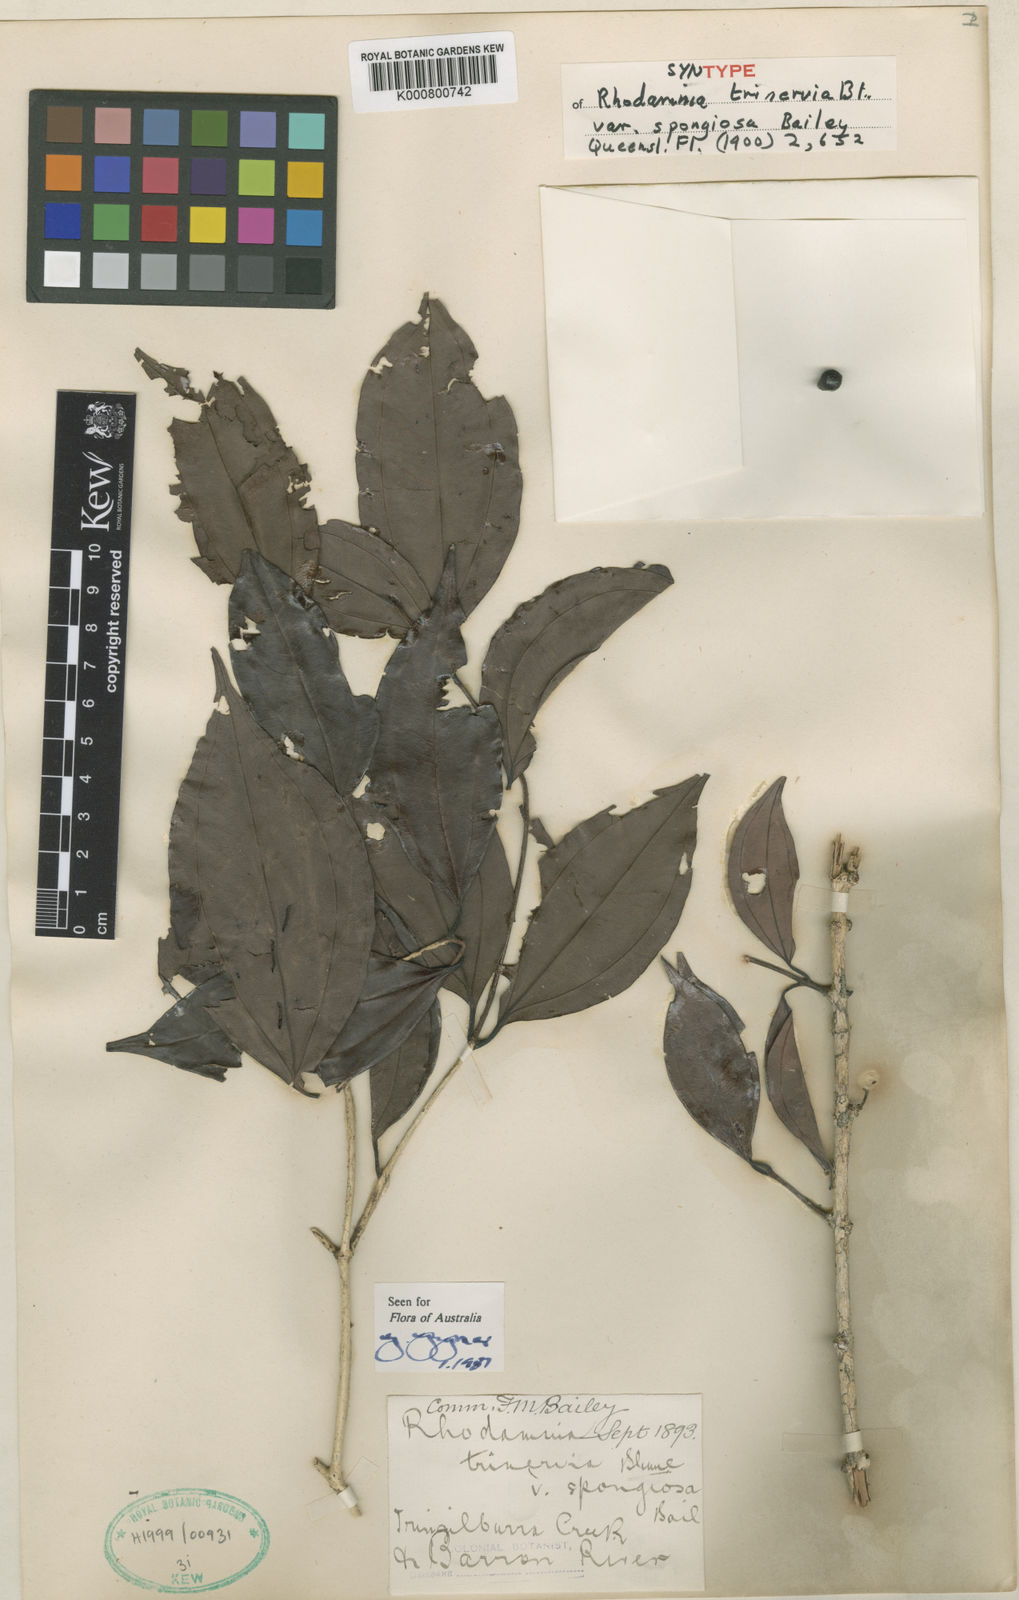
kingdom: Plantae
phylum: Tracheophyta
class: Magnoliopsida
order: Myrtales
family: Myrtaceae
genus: Rhodamnia
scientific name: Rhodamnia glauca
